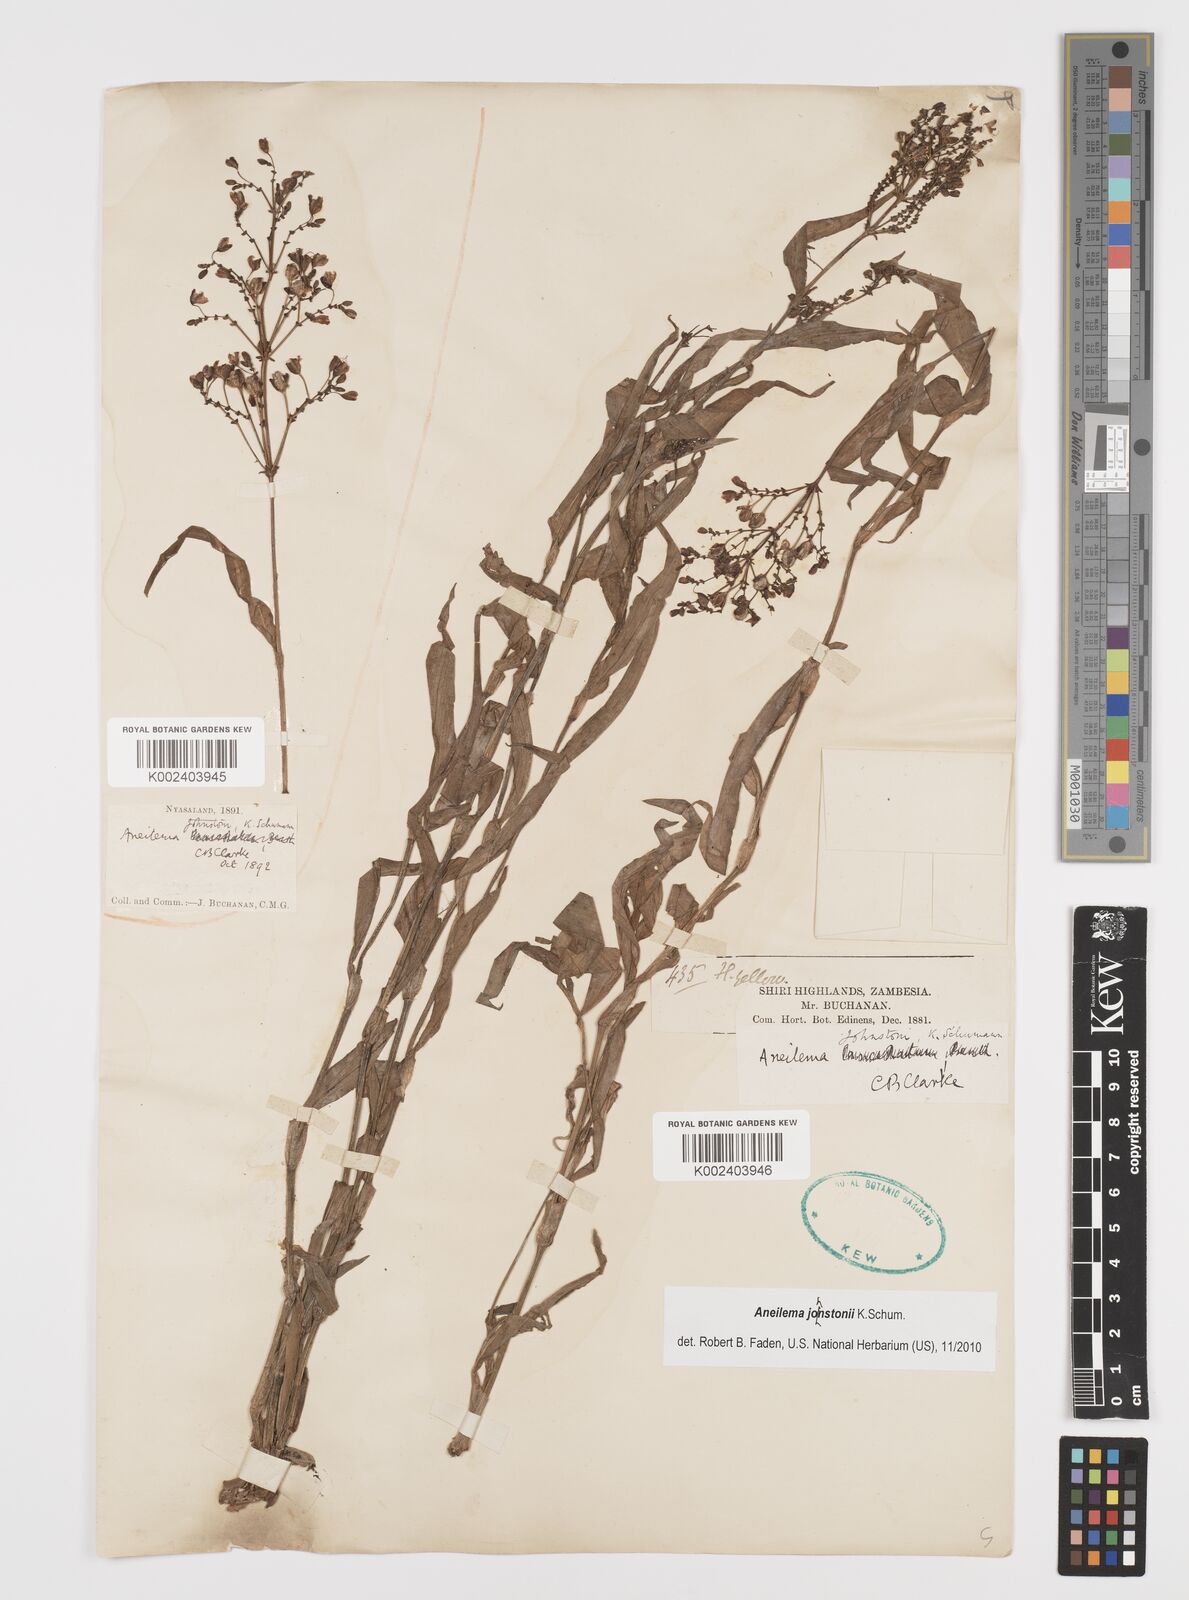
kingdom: Plantae
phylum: Tracheophyta
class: Liliopsida
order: Commelinales
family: Commelinaceae
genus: Aneilema
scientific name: Aneilema johnstonii
